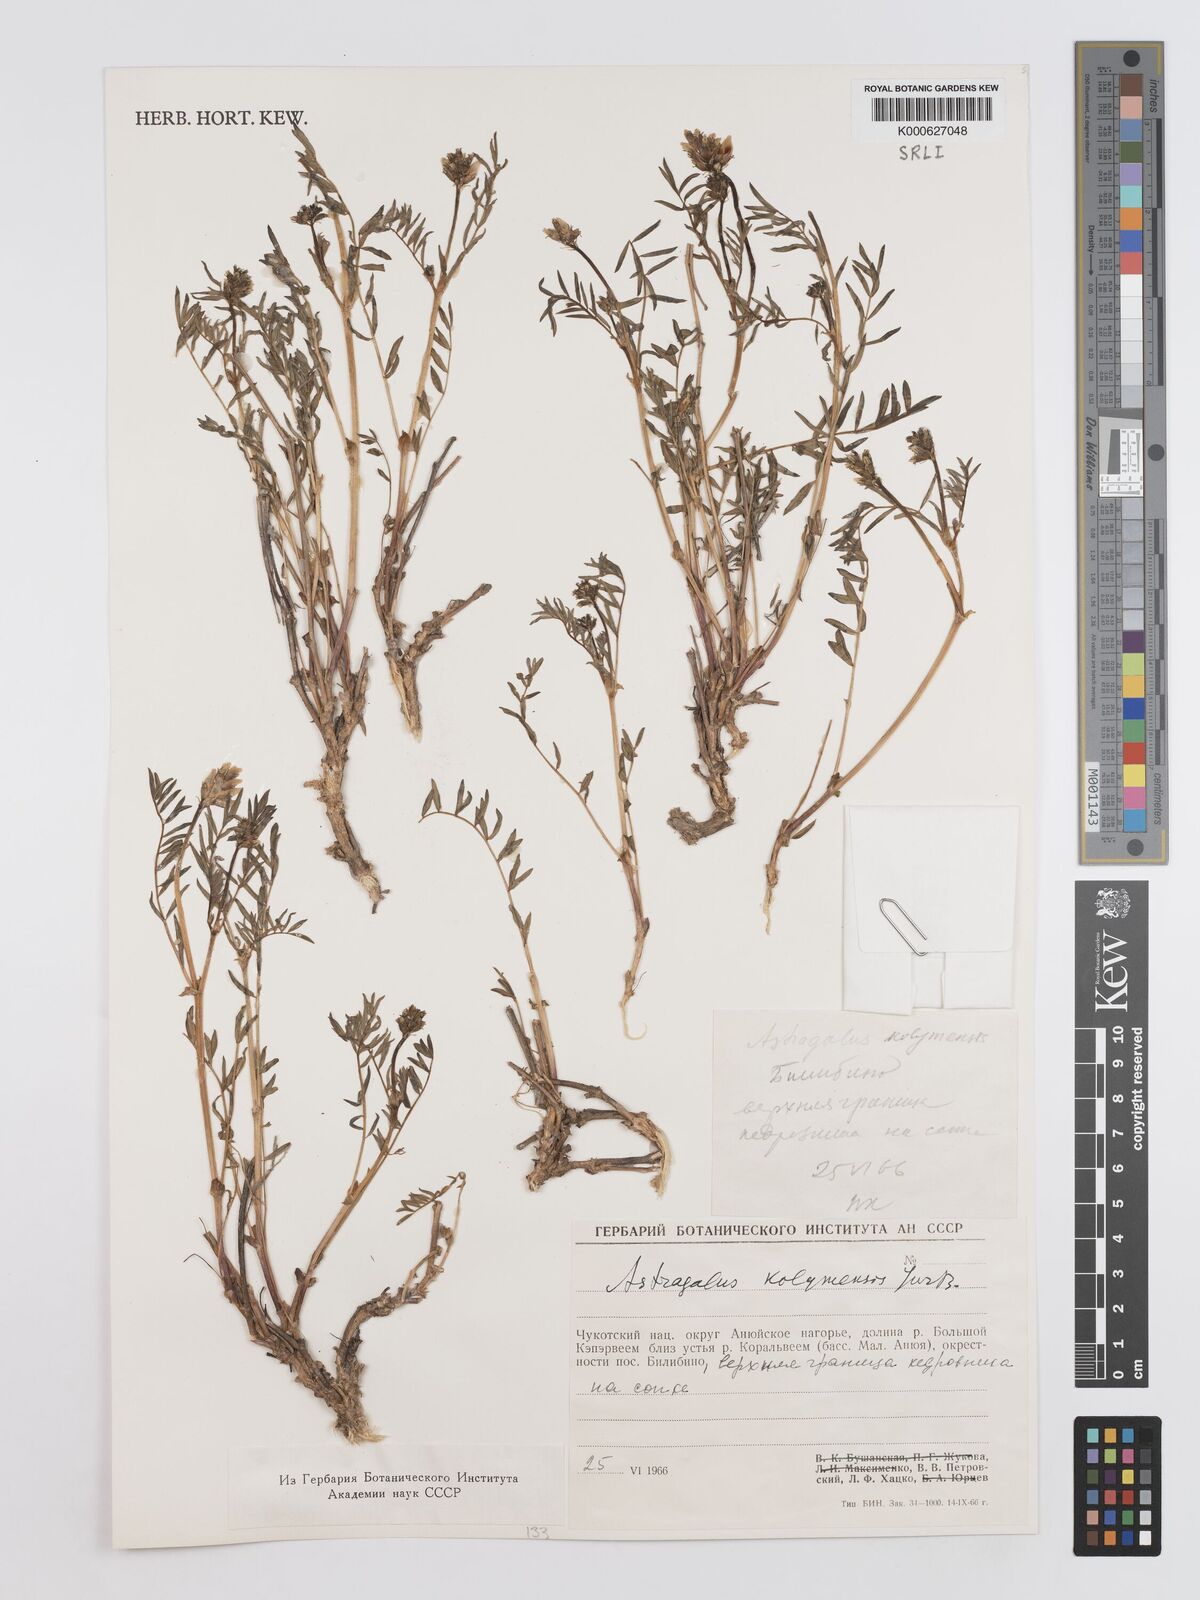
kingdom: Plantae
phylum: Tracheophyta
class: Magnoliopsida
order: Fabales
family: Fabaceae
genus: Astragalus
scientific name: Astragalus
